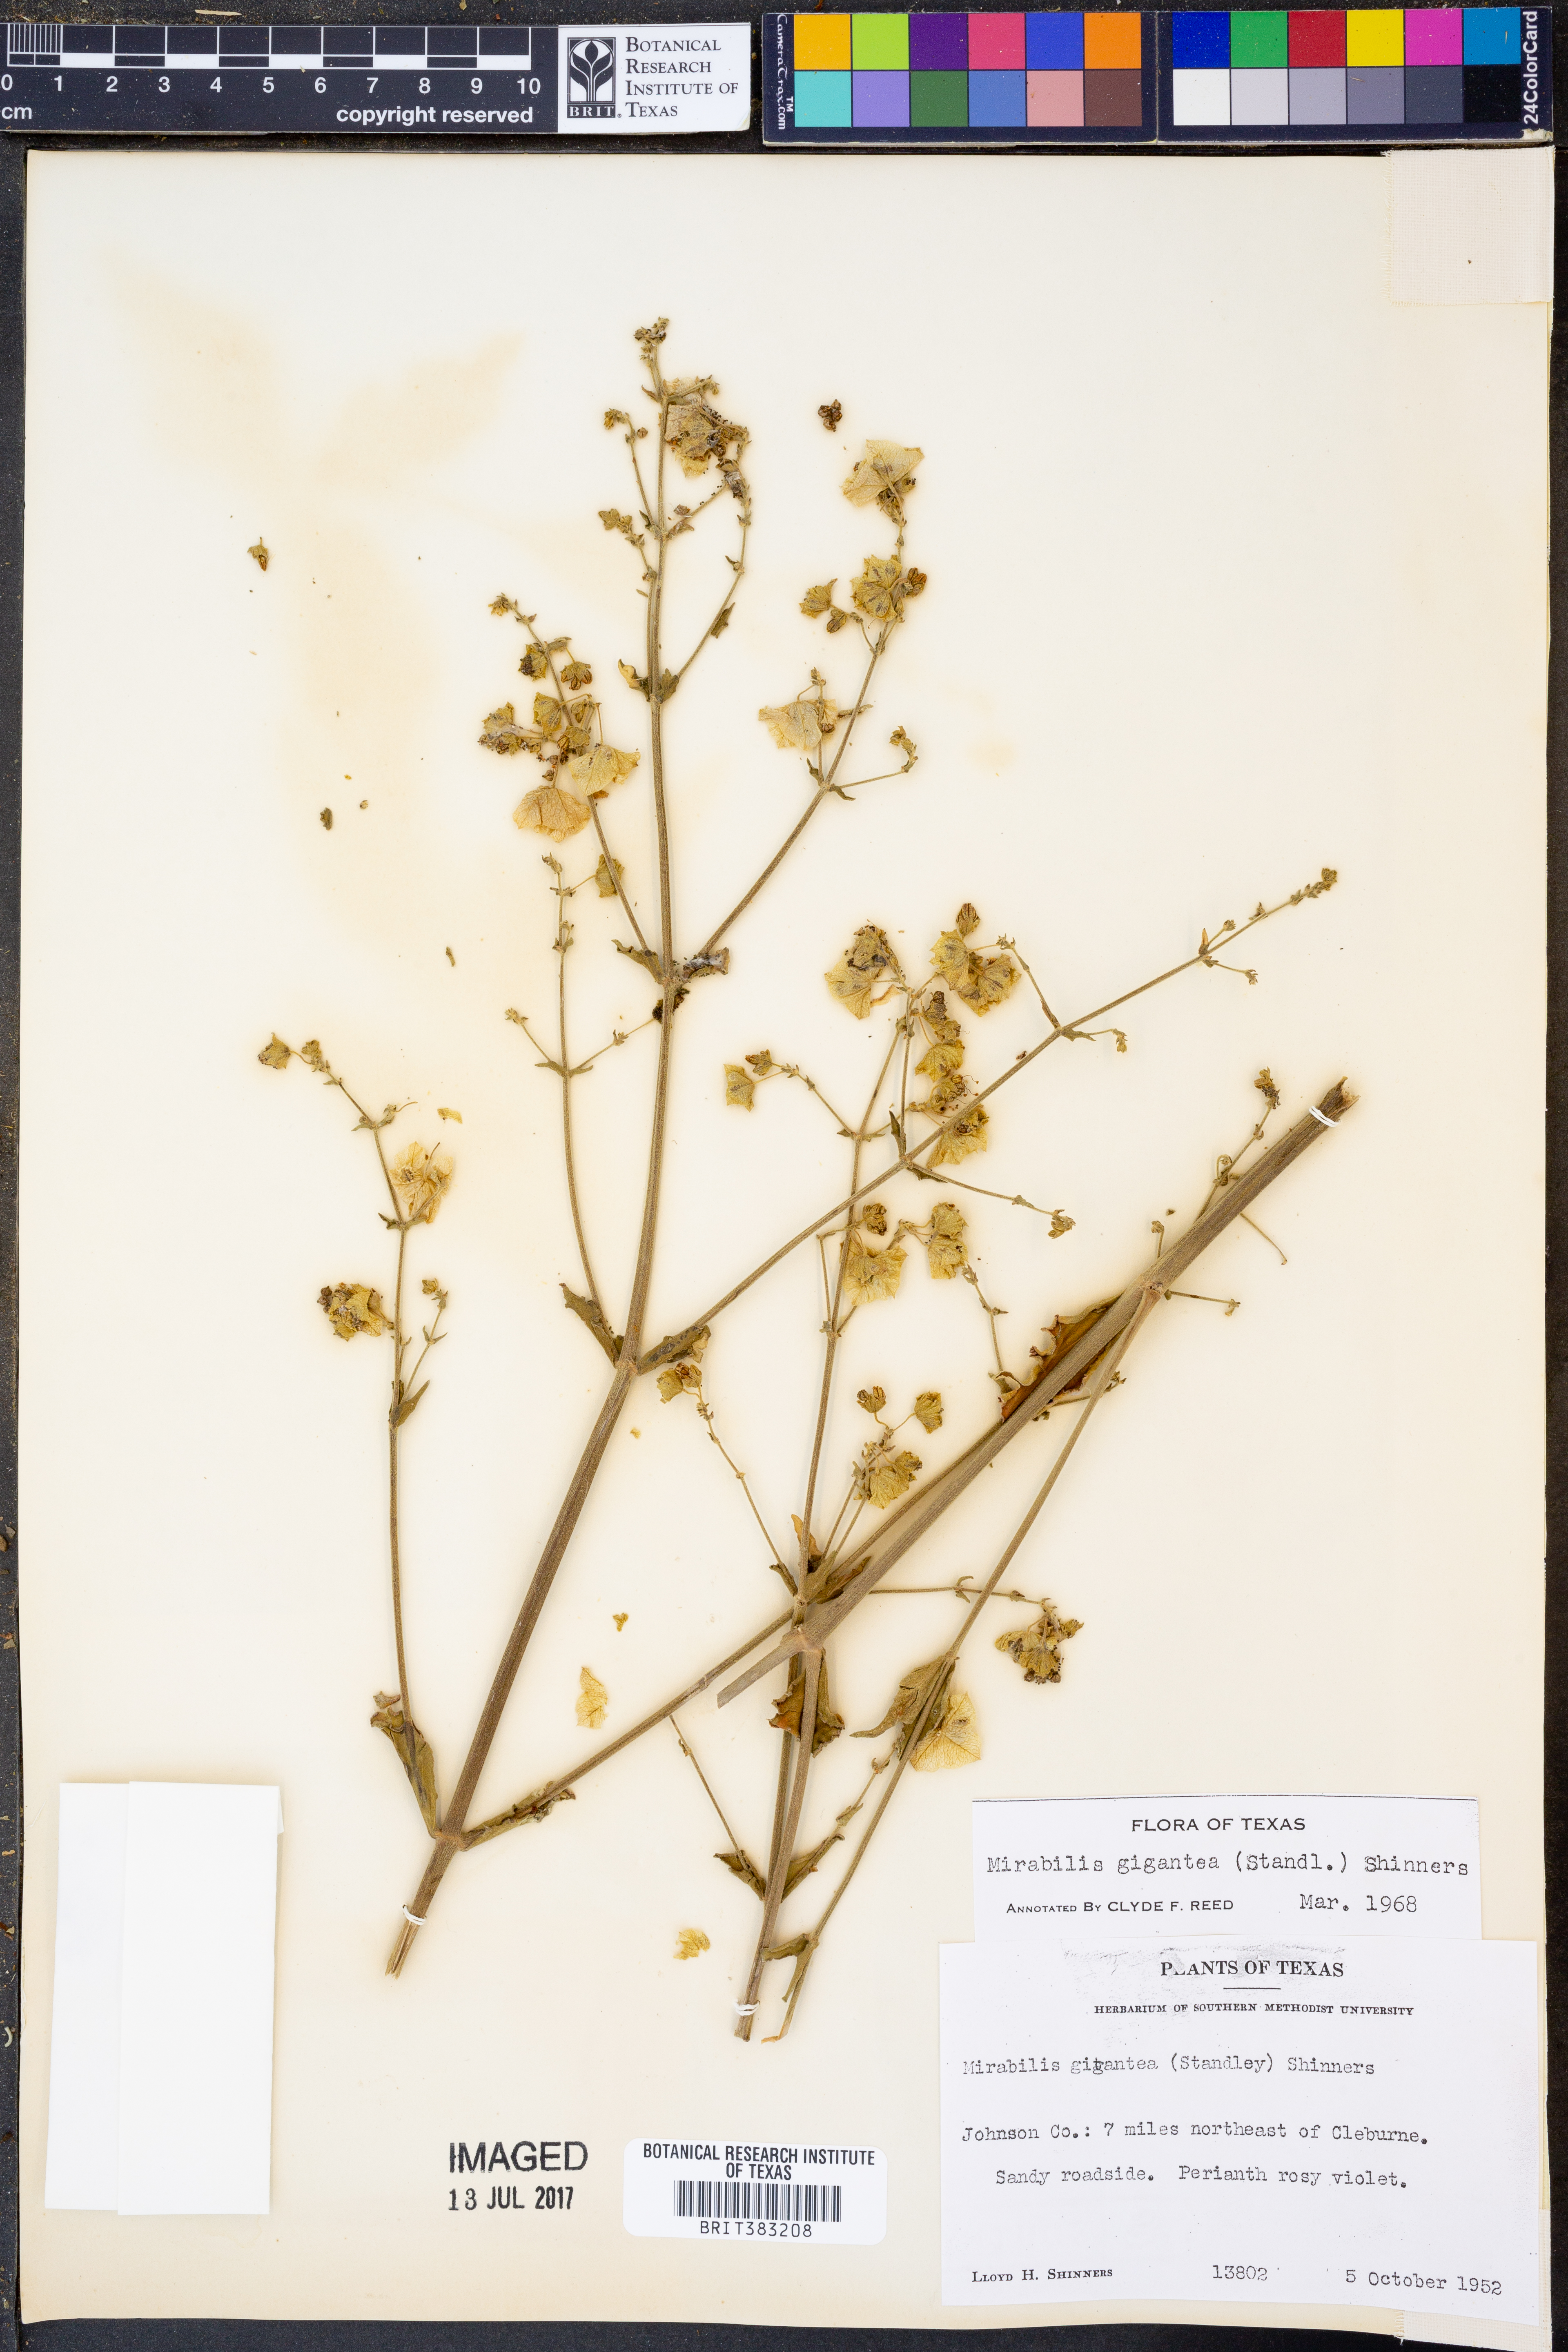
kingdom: Plantae
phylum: Tracheophyta
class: Magnoliopsida
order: Caryophyllales
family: Nyctaginaceae
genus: Mirabilis
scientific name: Mirabilis gigantea
